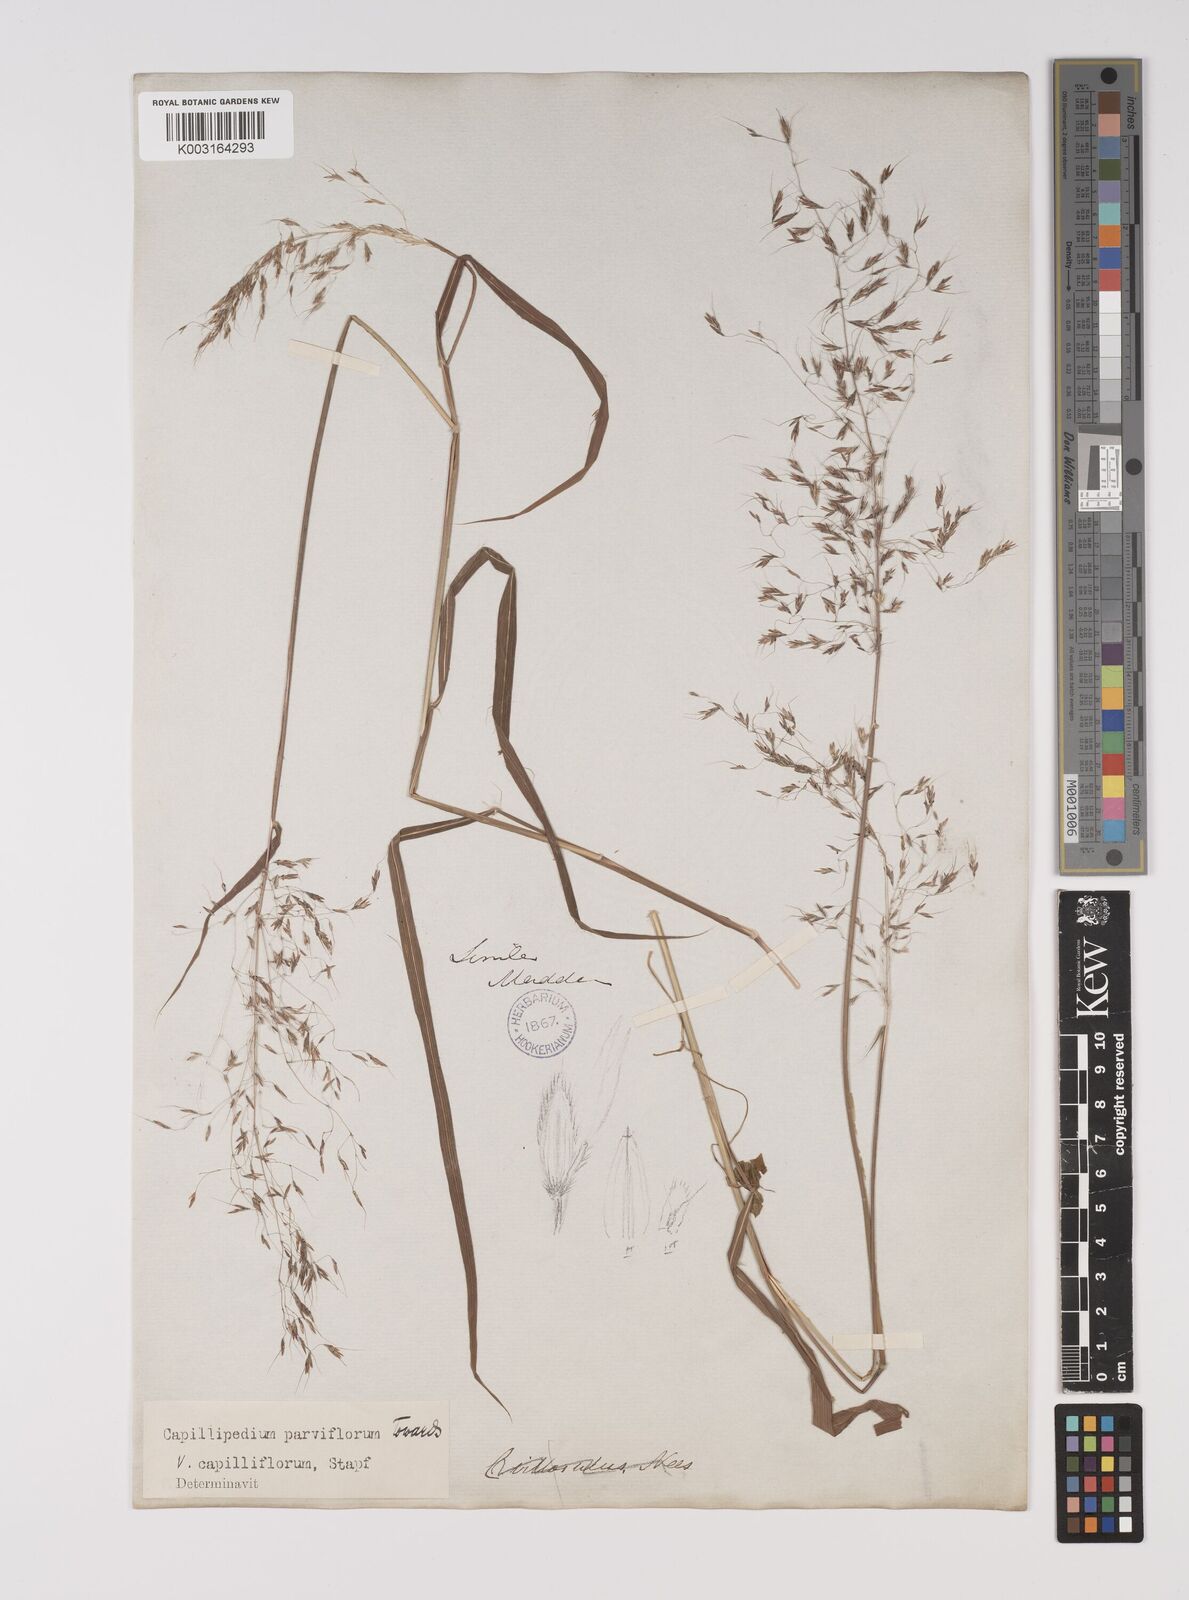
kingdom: Plantae
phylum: Tracheophyta
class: Liliopsida
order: Poales
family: Poaceae
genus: Capillipedium
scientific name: Capillipedium parviflorum
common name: Golden-beard
